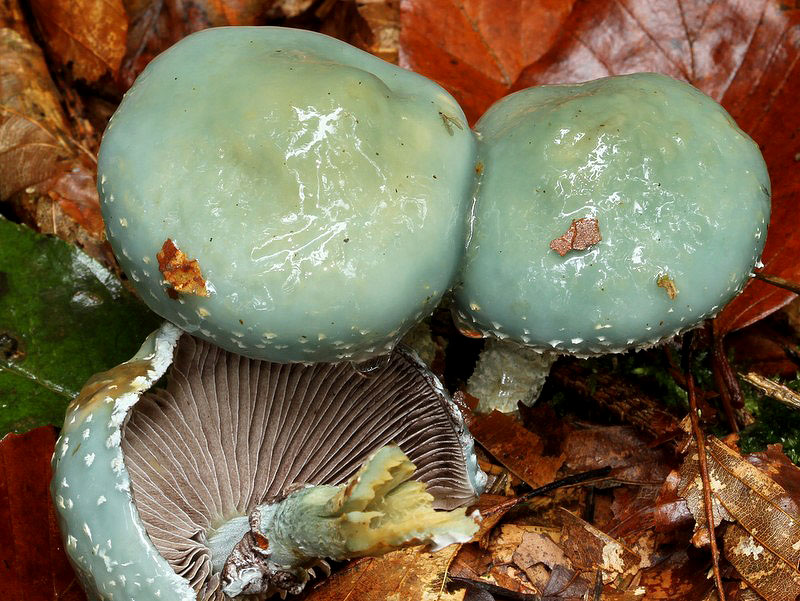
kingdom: Fungi
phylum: Basidiomycota
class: Agaricomycetes
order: Agaricales
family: Strophariaceae
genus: Stropharia
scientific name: Stropharia aeruginosa
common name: spanskgrøn bredblad
